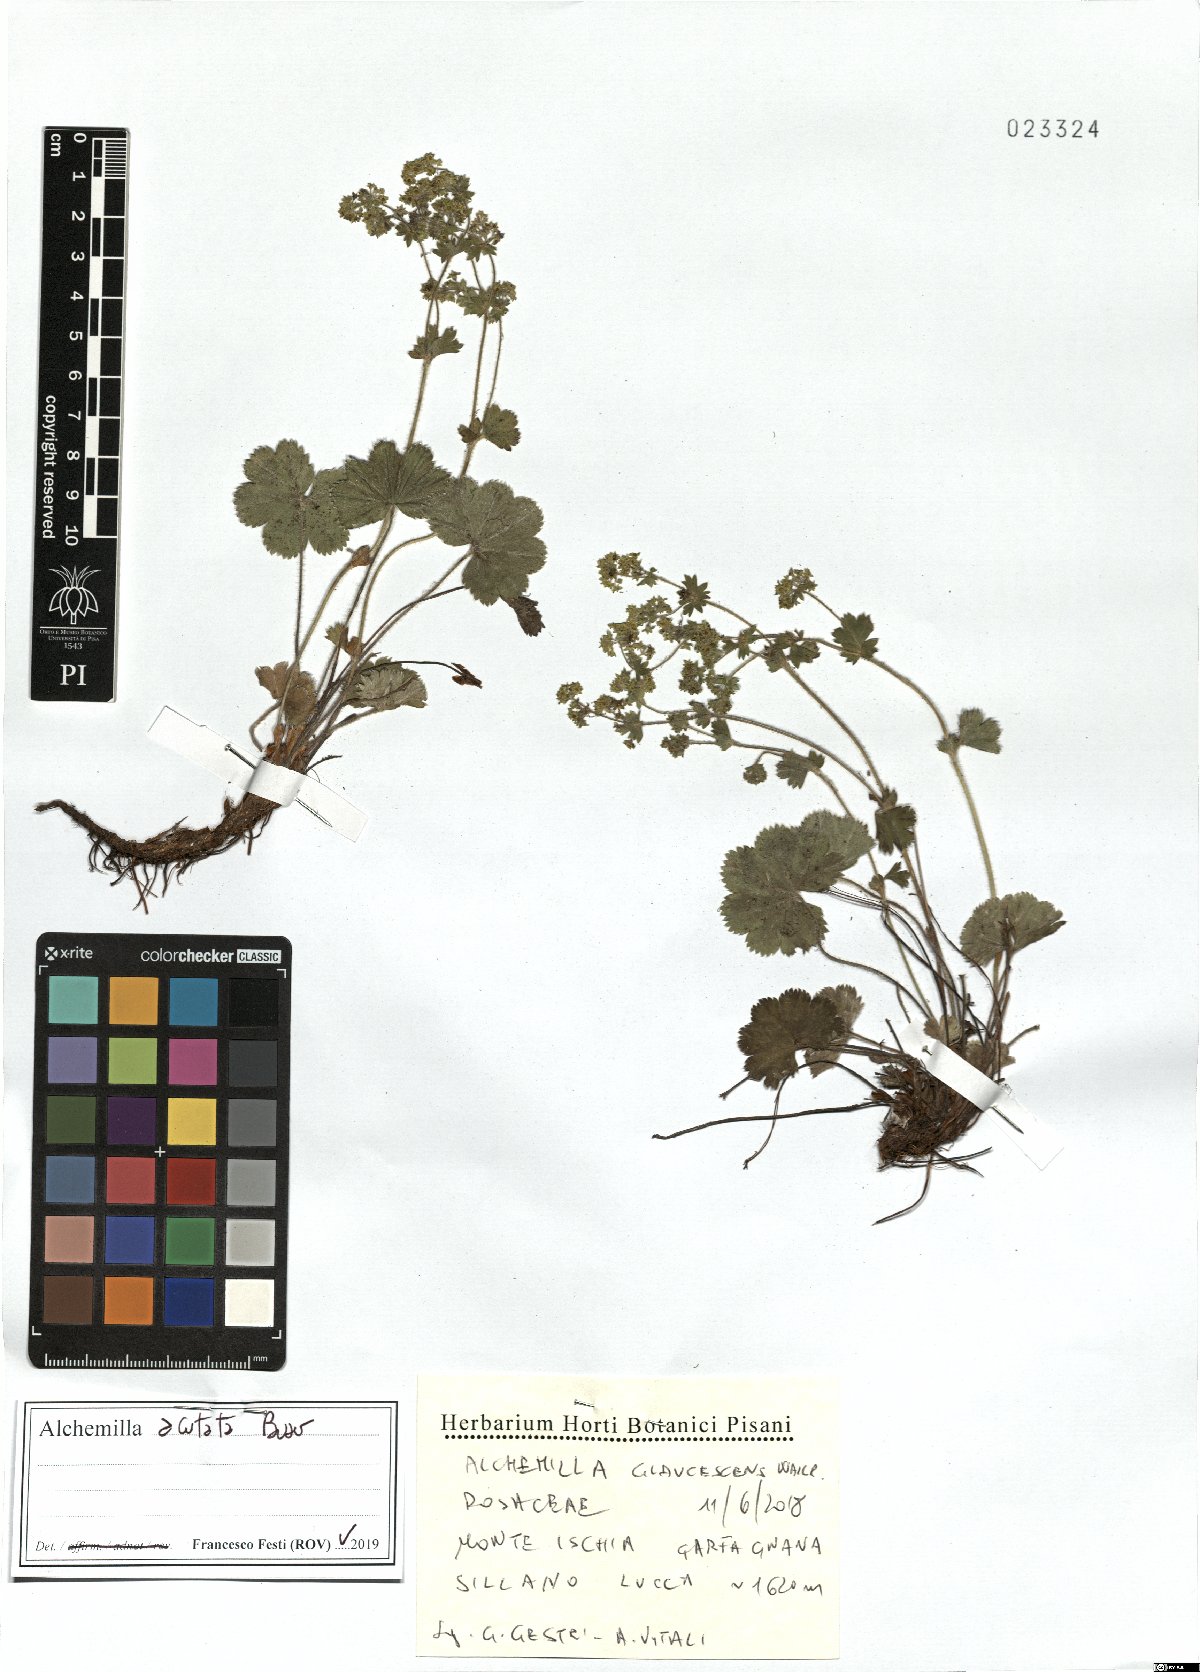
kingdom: Plantae
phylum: Tracheophyta
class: Magnoliopsida
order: Rosales
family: Rosaceae
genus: Alchemilla
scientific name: Alchemilla acutata
